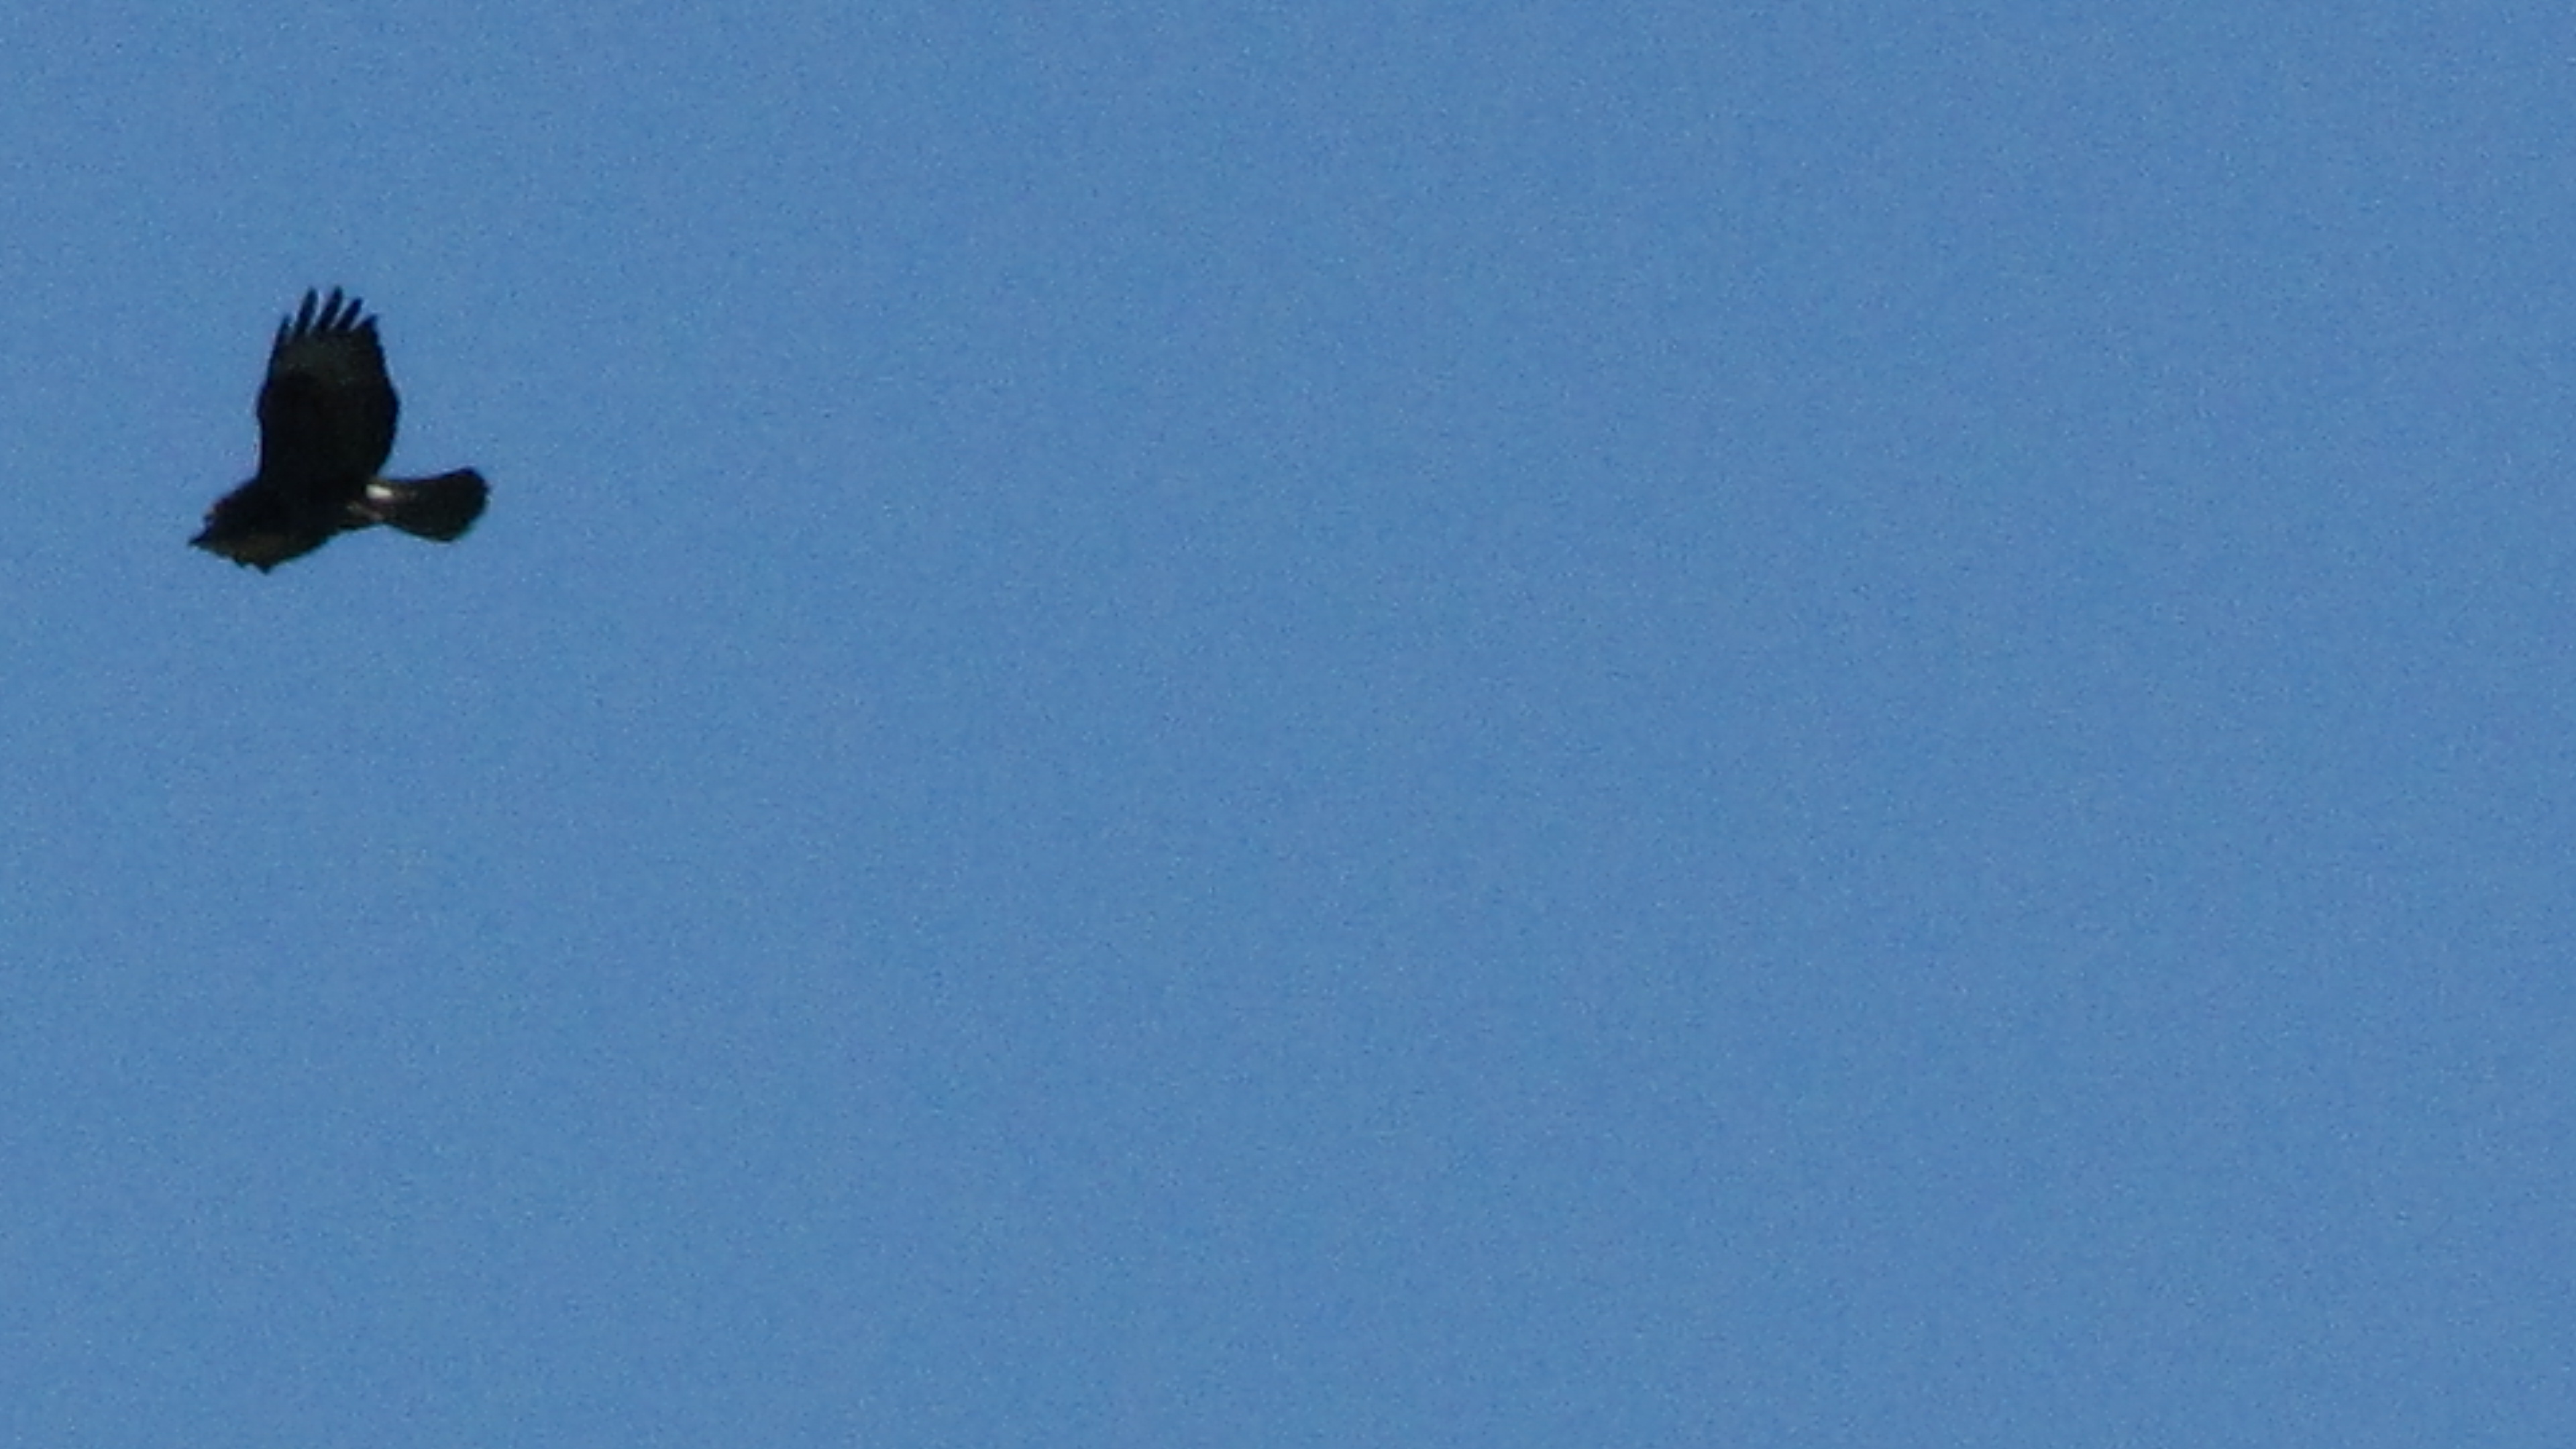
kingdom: Animalia
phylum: Chordata
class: Aves
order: Accipitriformes
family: Accipitridae
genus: Buteo
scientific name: Buteo buteo
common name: Common buzzard
